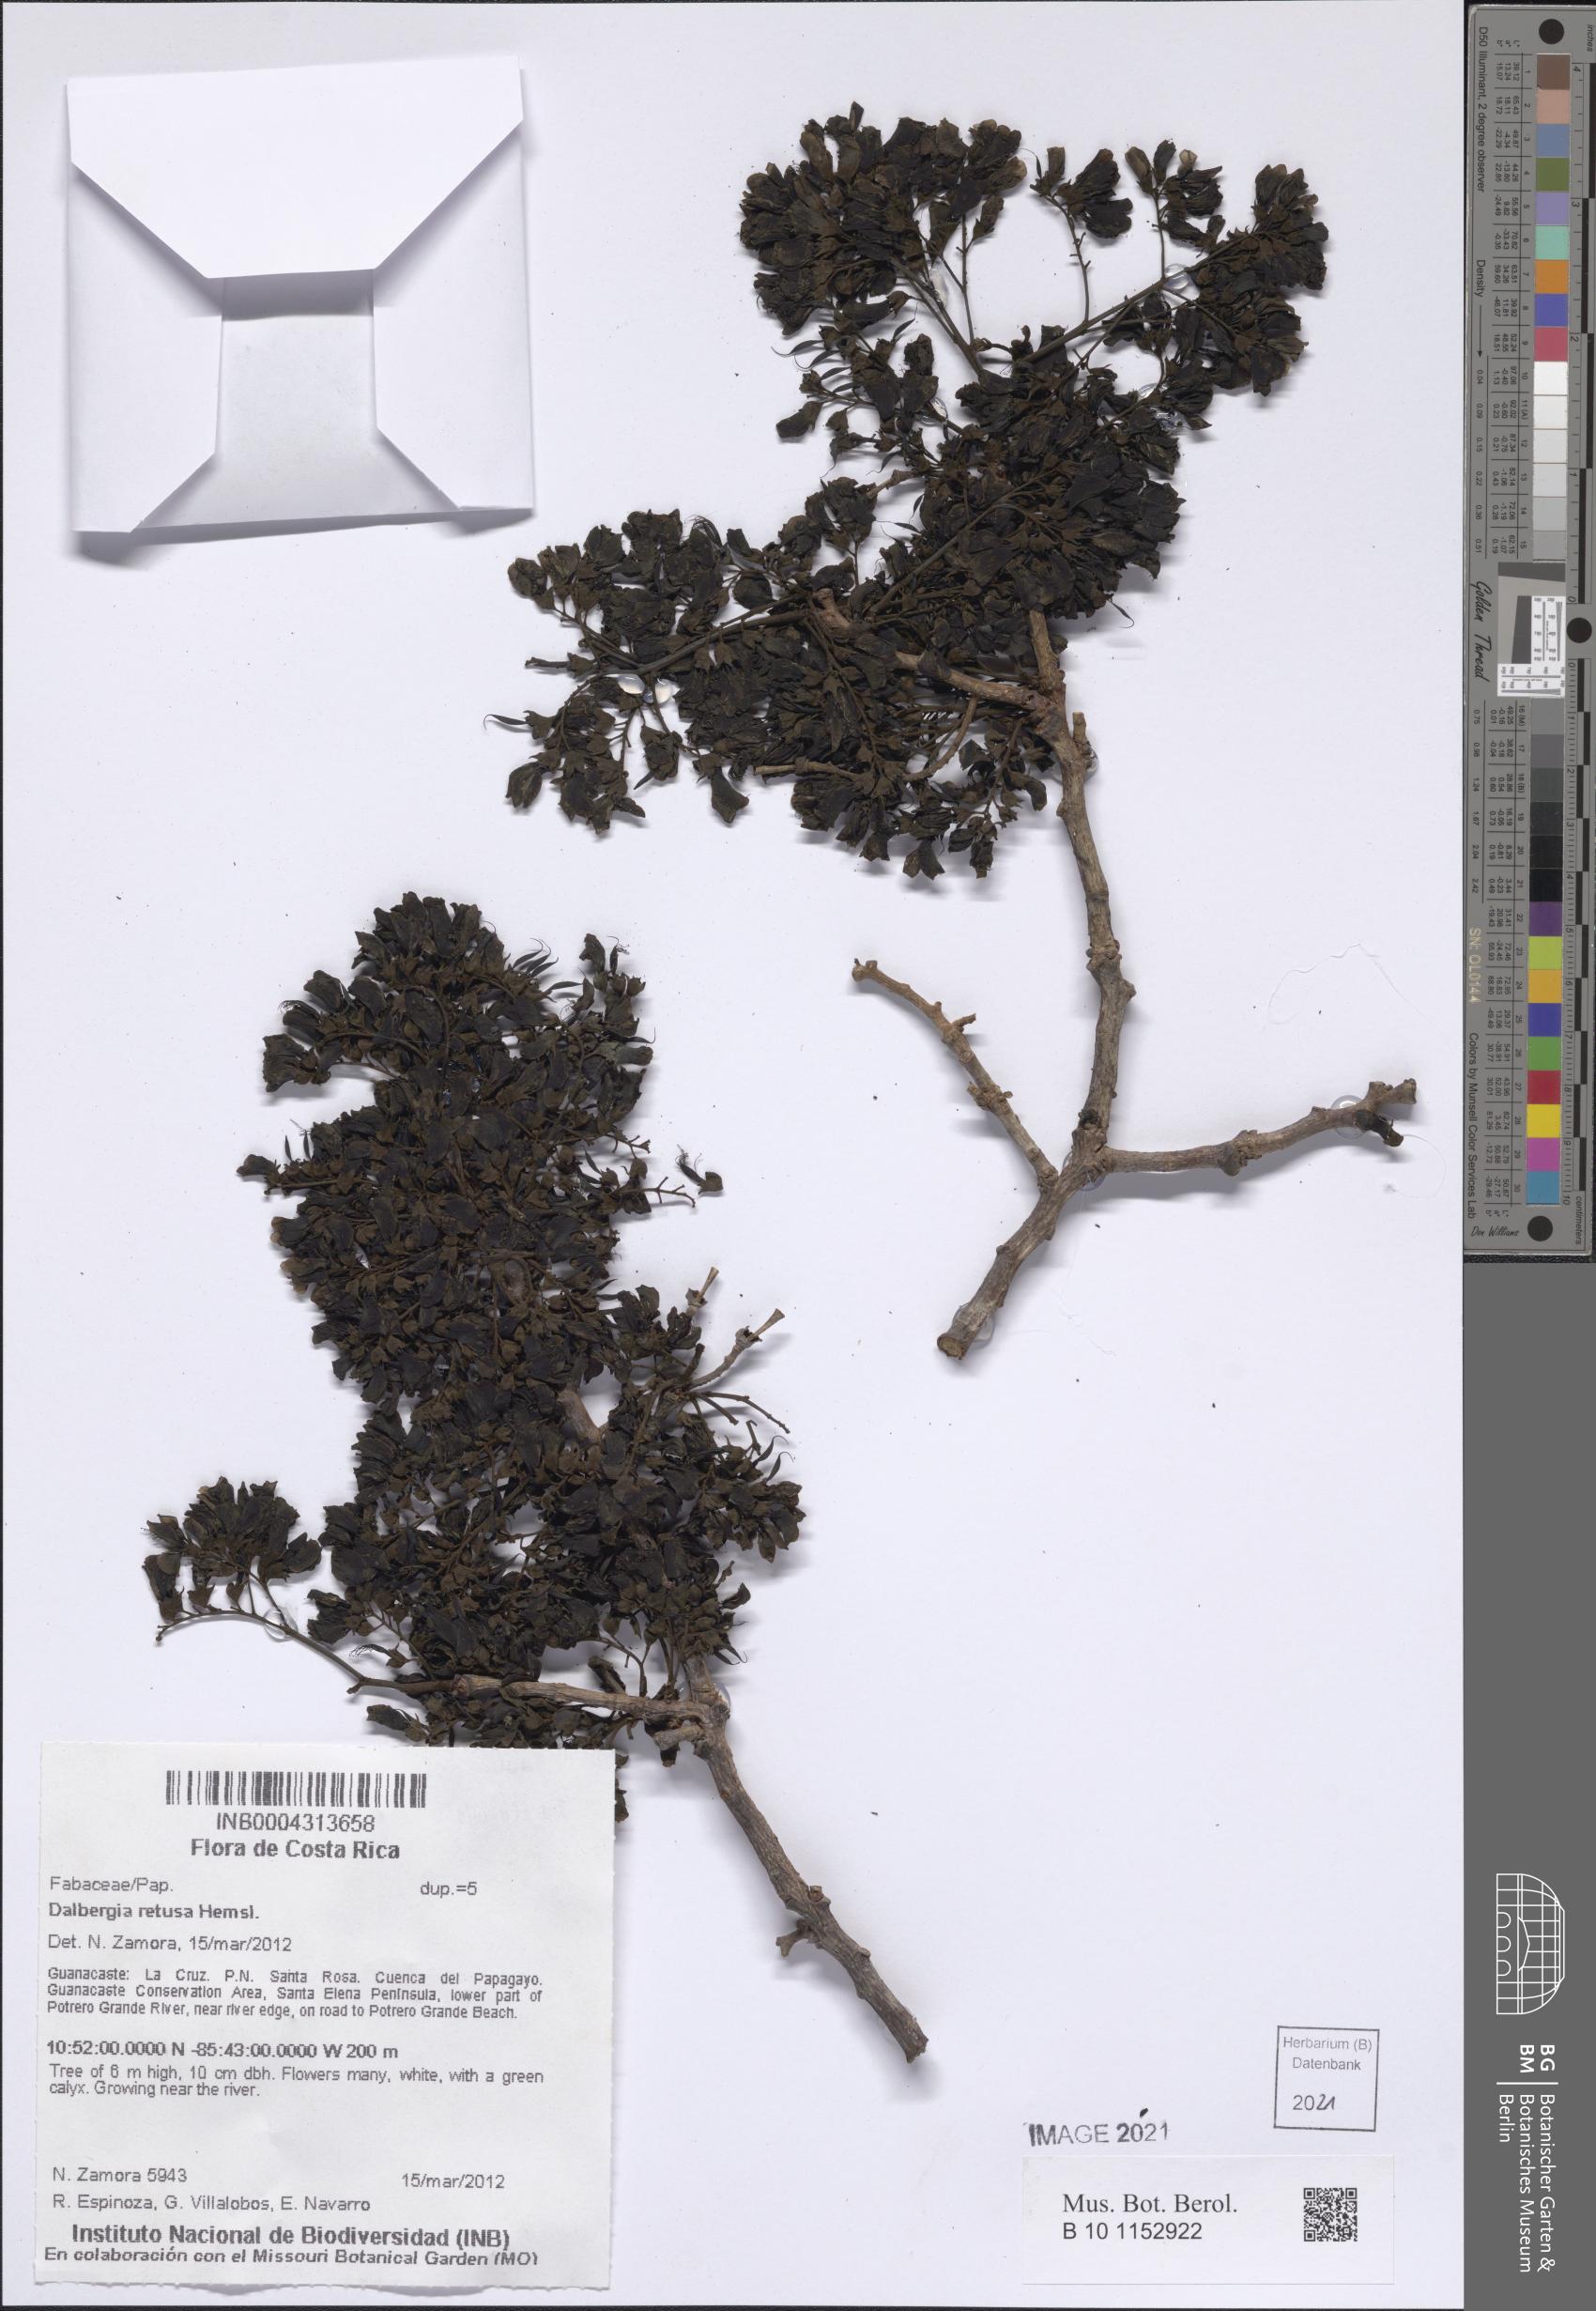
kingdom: Plantae
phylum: Tracheophyta
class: Magnoliopsida
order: Fabales
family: Fabaceae
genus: Dalbergia
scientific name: Dalbergia retusa
